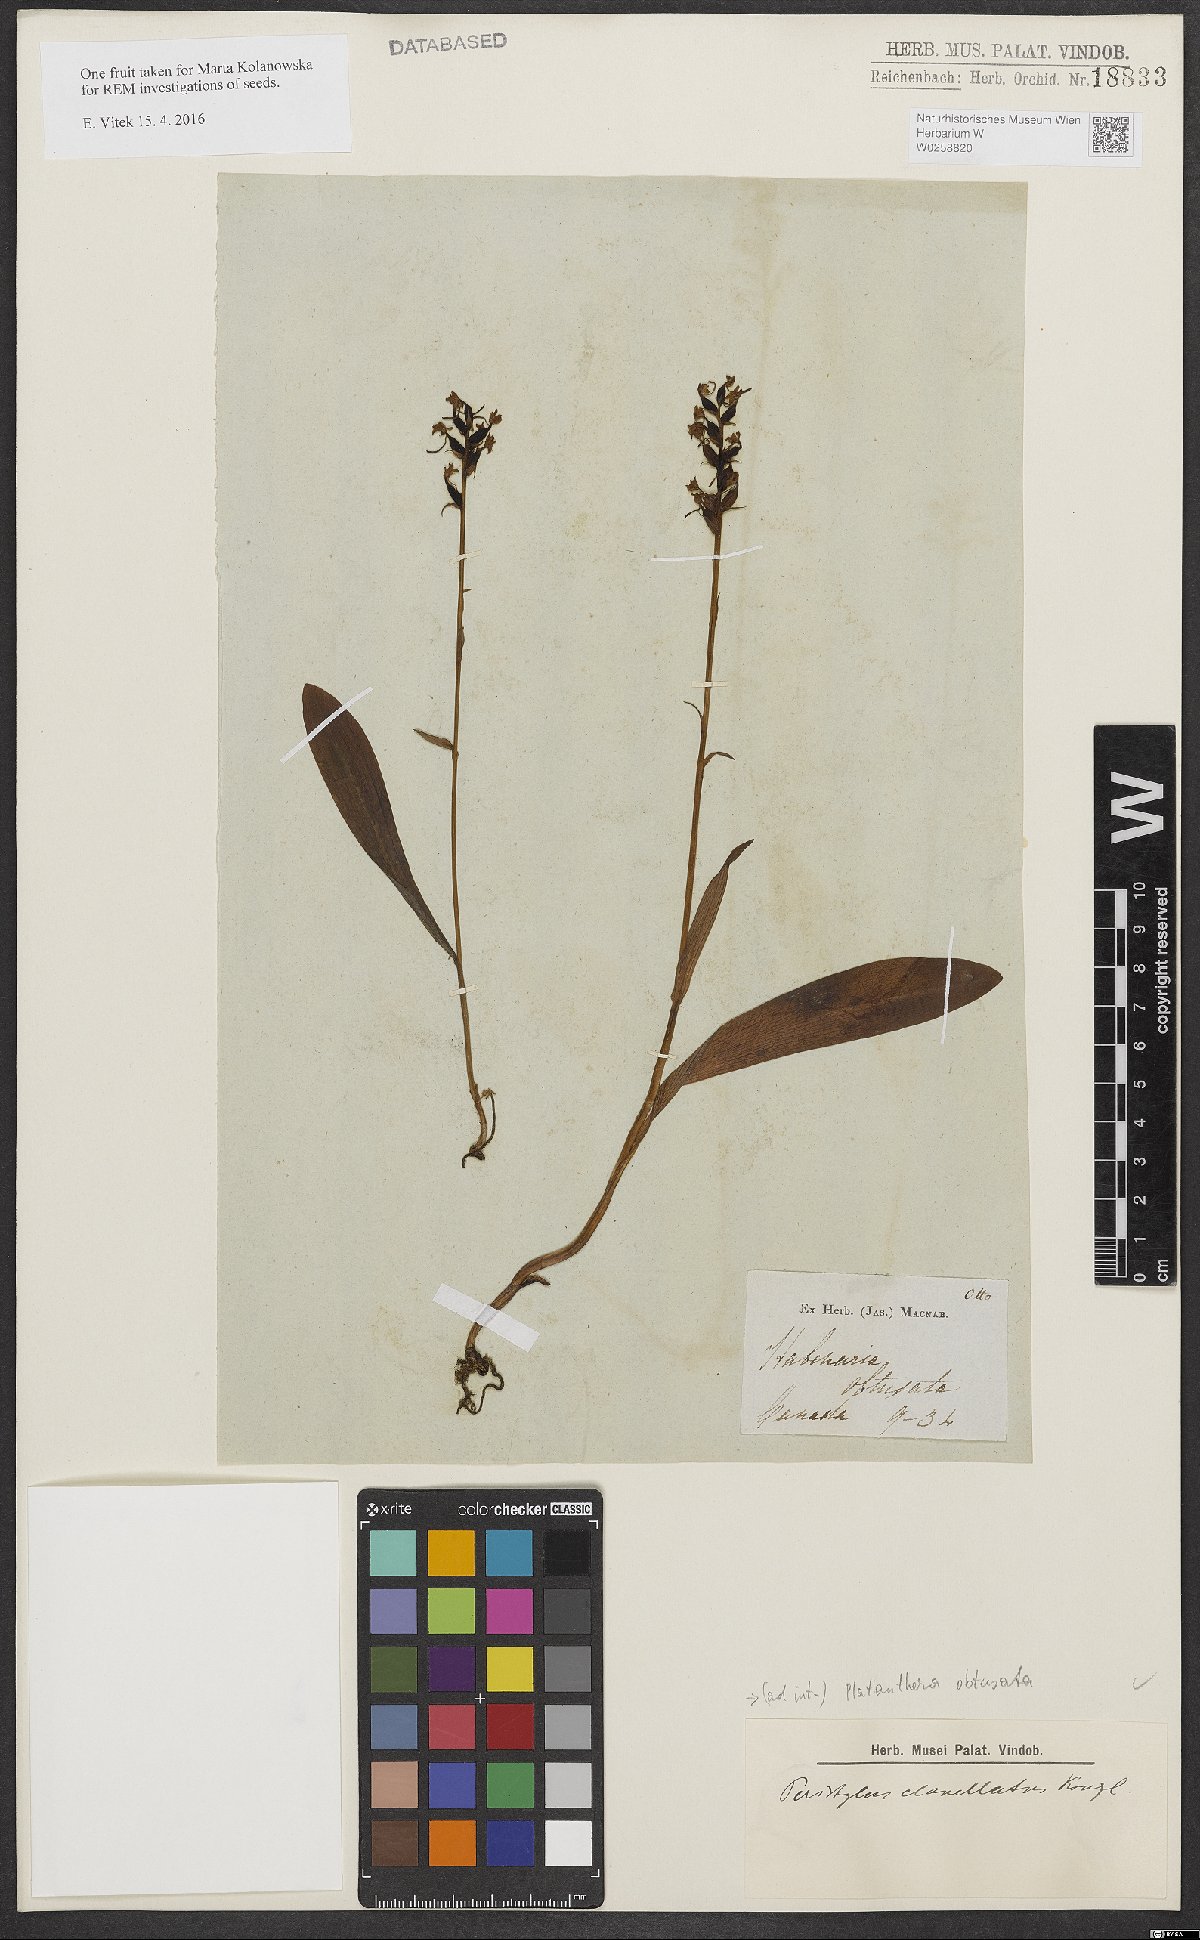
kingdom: Plantae
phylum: Tracheophyta
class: Liliopsida
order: Asparagales
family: Orchidaceae
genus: Platanthera
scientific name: Platanthera obtusata
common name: Blunt bog orchid
